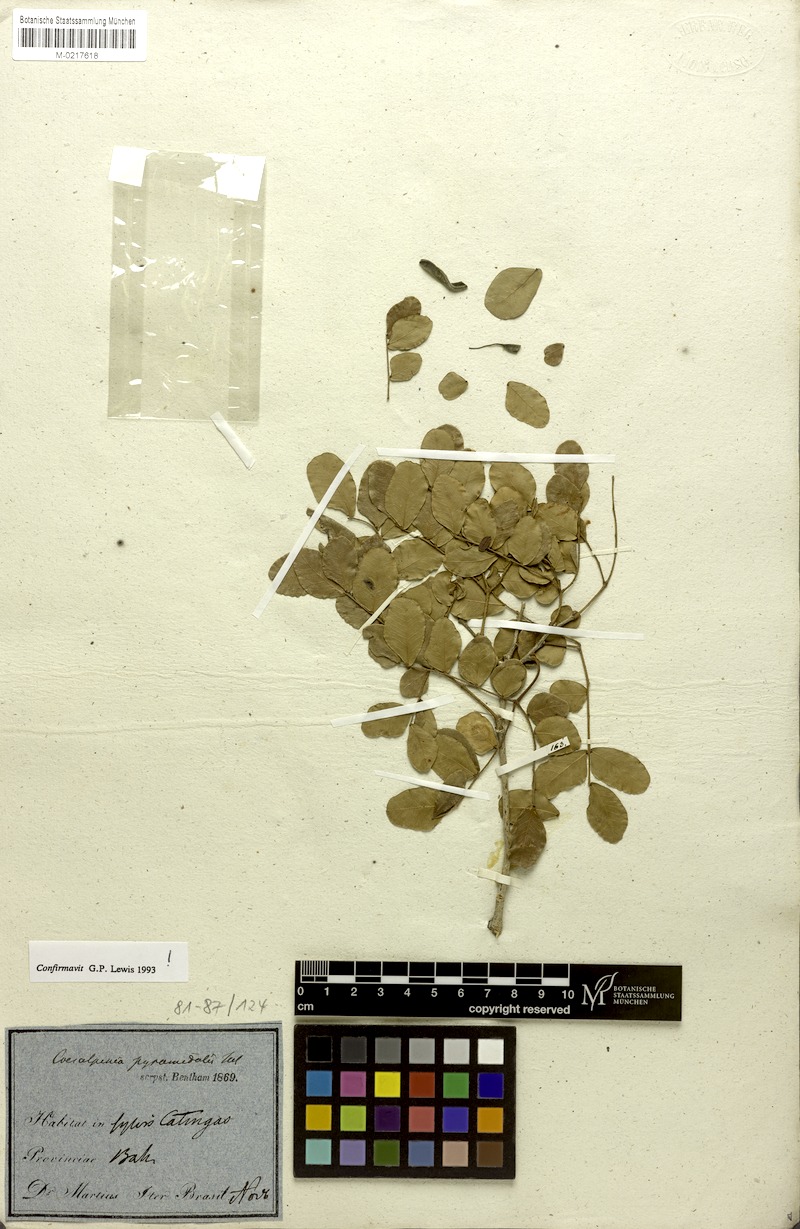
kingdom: Plantae
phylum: Tracheophyta
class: Magnoliopsida
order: Fabales
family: Fabaceae
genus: Cenostigma
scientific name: Cenostigma pyramidale
